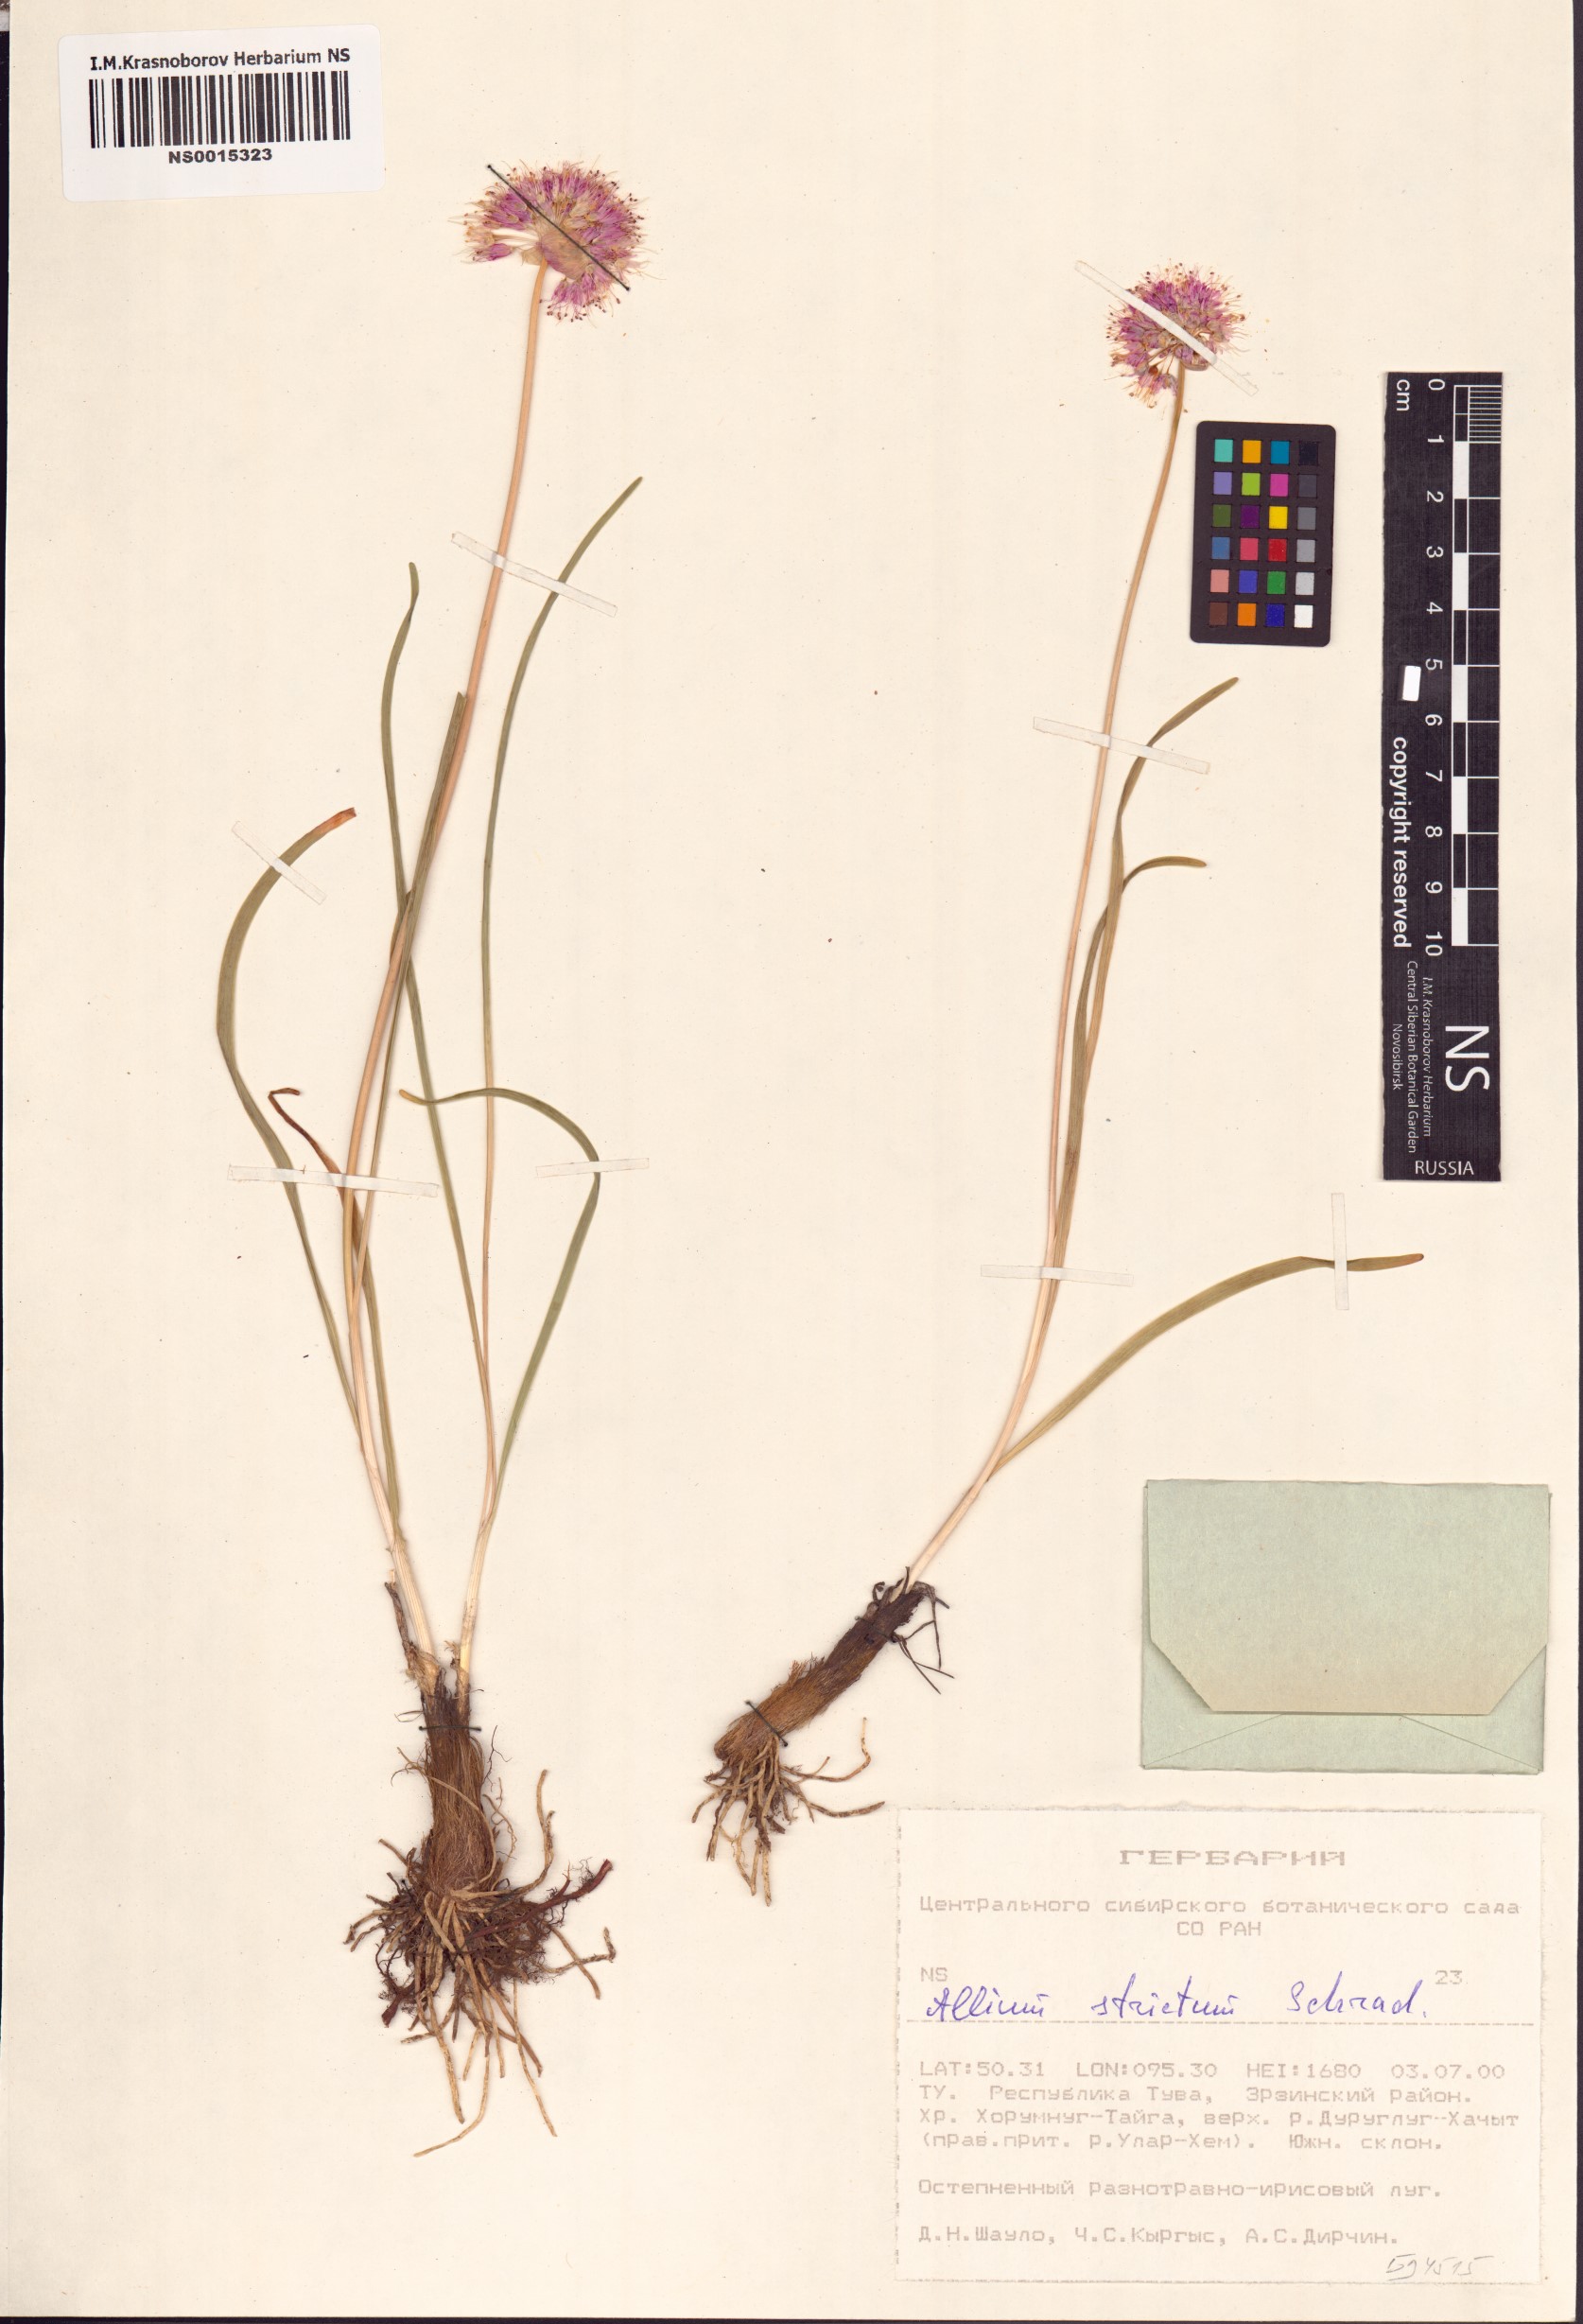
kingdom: Plantae
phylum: Tracheophyta
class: Liliopsida
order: Asparagales
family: Amaryllidaceae
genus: Allium
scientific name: Allium strictum
